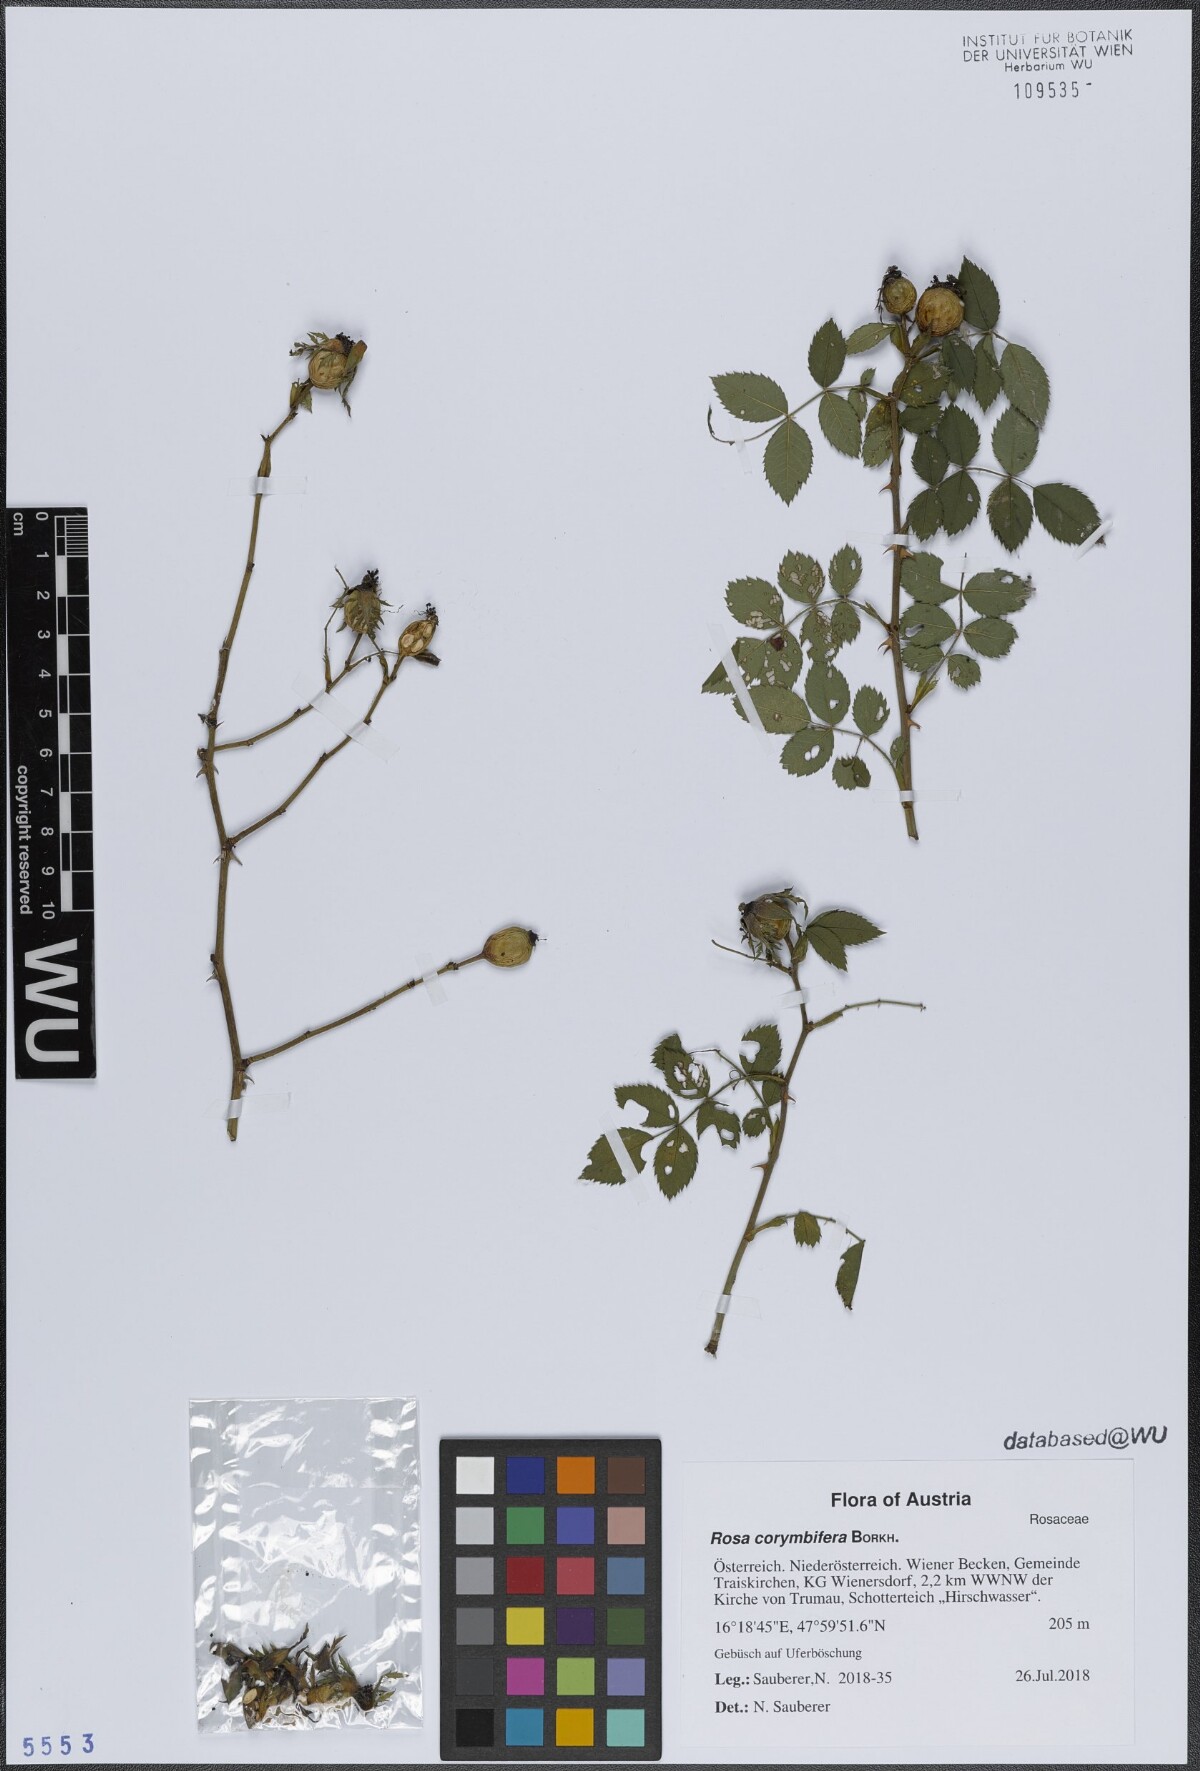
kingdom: Plantae
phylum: Tracheophyta
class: Magnoliopsida
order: Rosales
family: Rosaceae
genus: Rosa
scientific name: Rosa corymbifera
